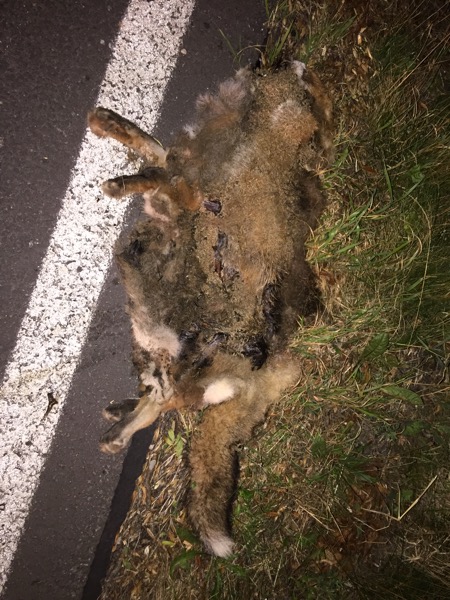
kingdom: Animalia
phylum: Chordata
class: Mammalia
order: Carnivora
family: Canidae
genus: Vulpes
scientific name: Vulpes vulpes
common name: Red fox
